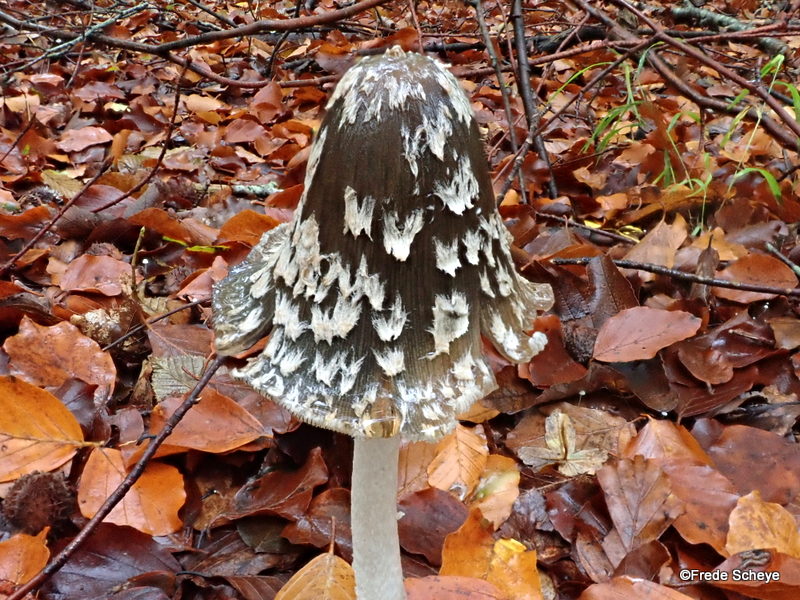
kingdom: Fungi
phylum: Basidiomycota
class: Agaricomycetes
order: Agaricales
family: Psathyrellaceae
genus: Coprinopsis
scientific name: Coprinopsis picacea
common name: skade-blækhat
